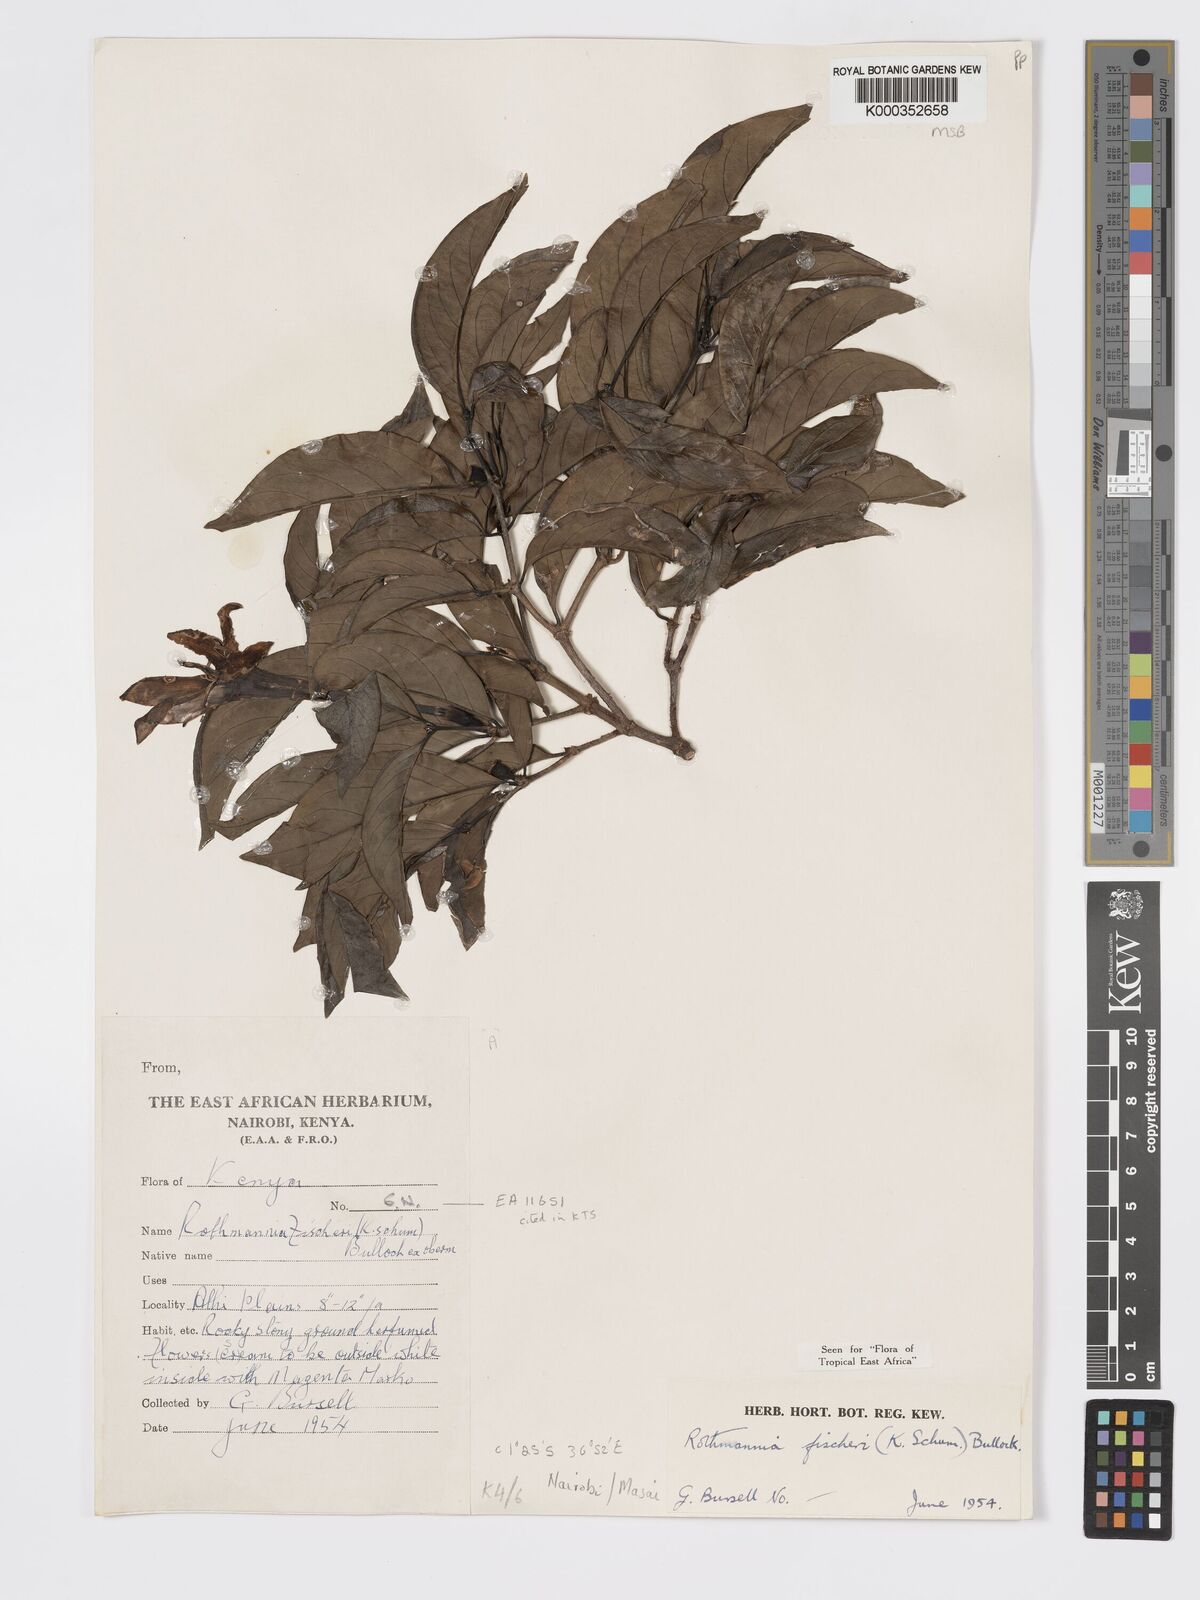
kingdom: Plantae
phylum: Tracheophyta
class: Magnoliopsida
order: Gentianales
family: Rubiaceae
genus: Rothmannia
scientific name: Rothmannia fischeri
